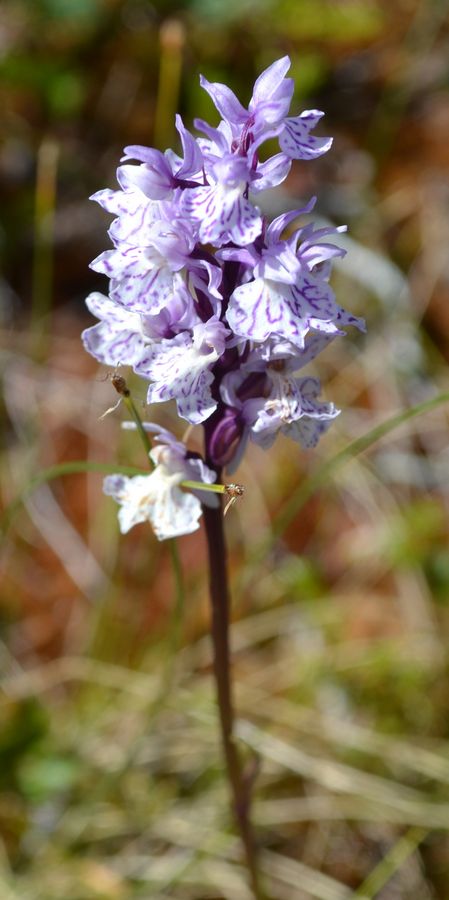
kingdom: Plantae
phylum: Tracheophyta
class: Liliopsida
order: Asparagales
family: Orchidaceae
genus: Dactylorhiza
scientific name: Dactylorhiza maculata
